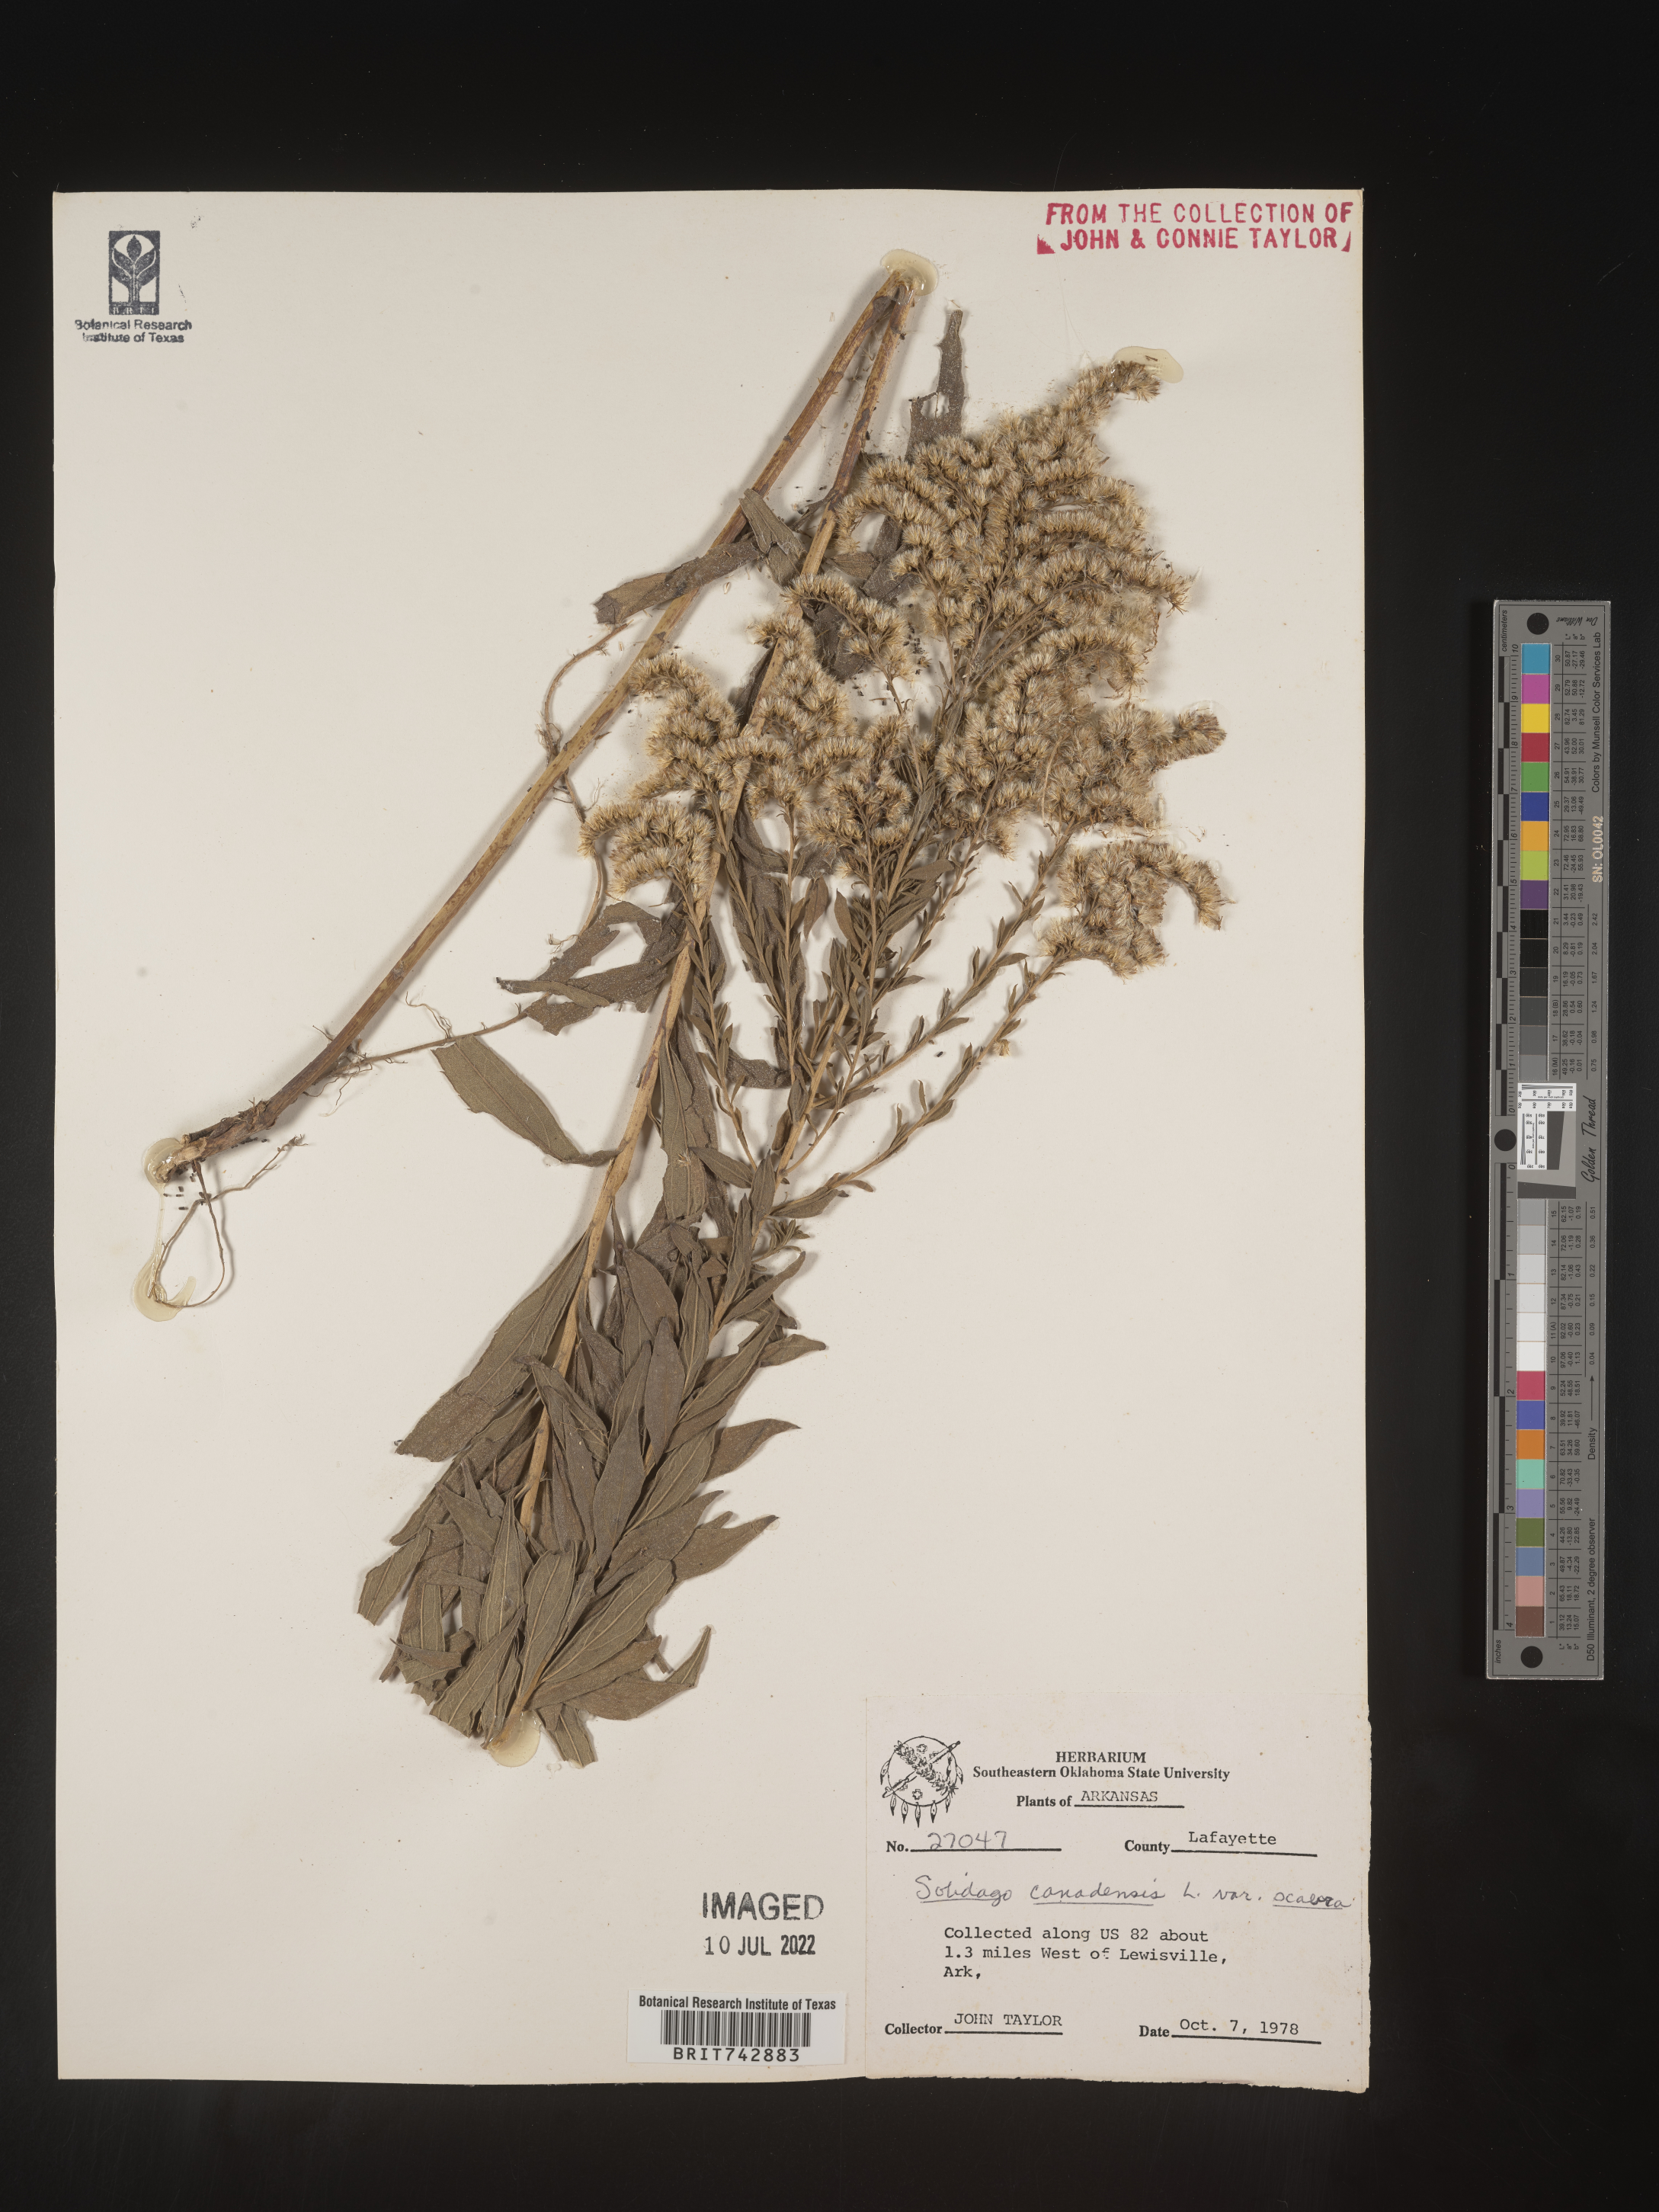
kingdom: Plantae
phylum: Tracheophyta
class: Magnoliopsida
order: Asterales
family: Asteraceae
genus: Solidago
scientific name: Solidago altissima
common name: Late goldenrod
